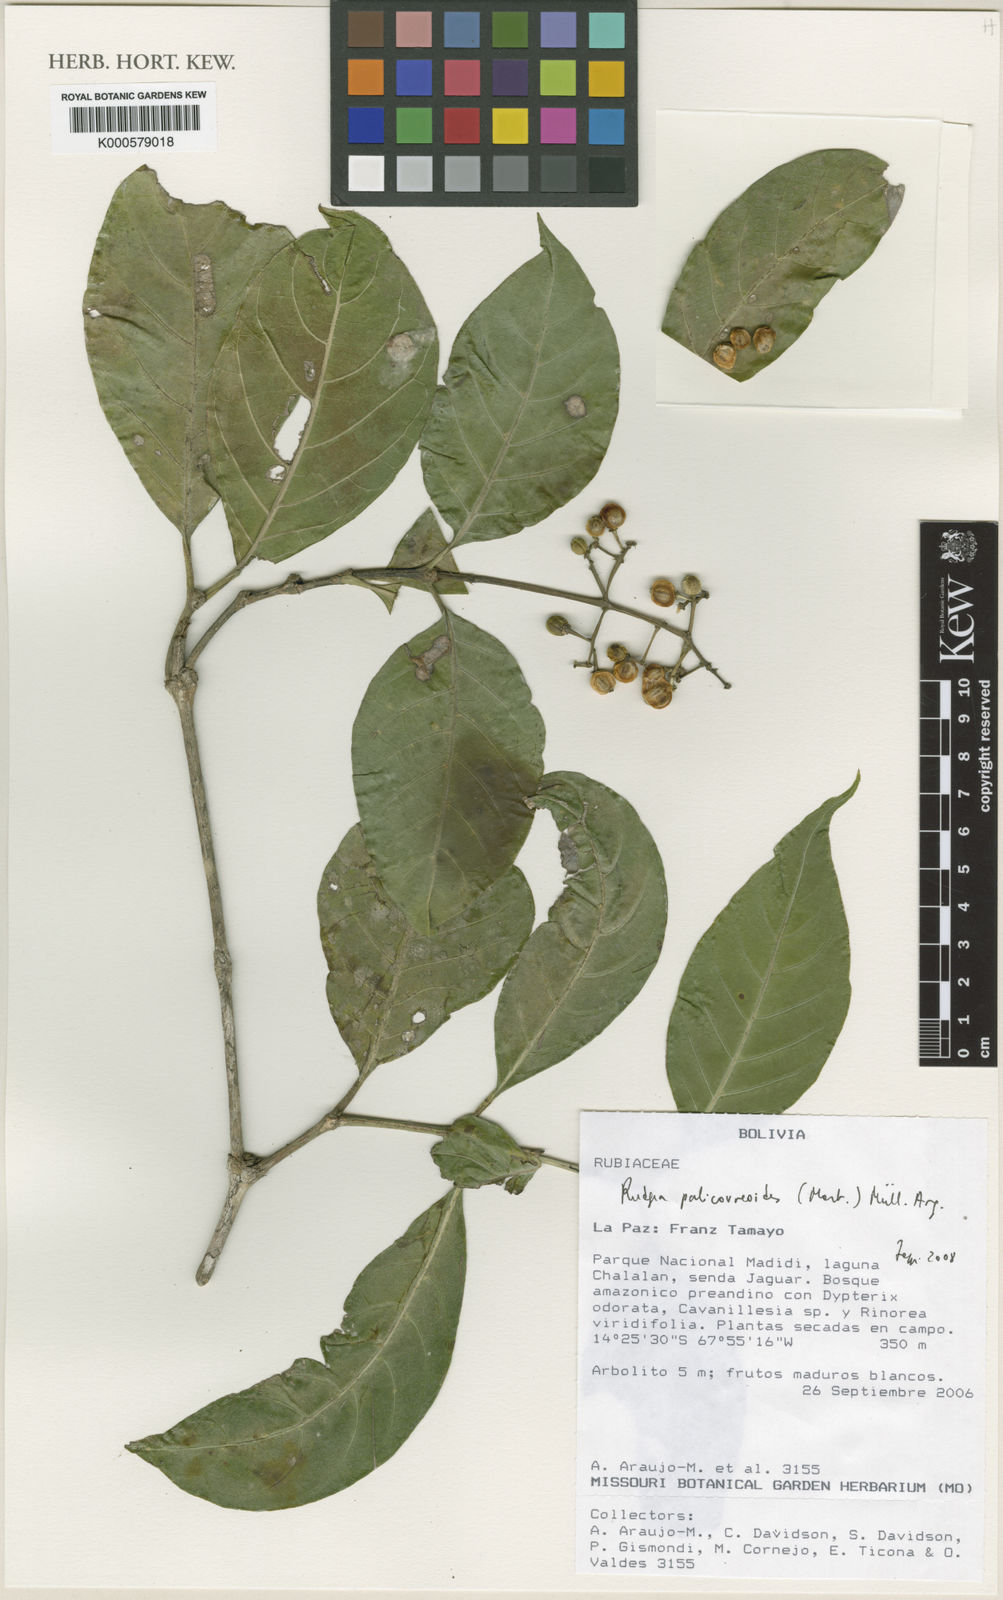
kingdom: Plantae
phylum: Tracheophyta
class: Magnoliopsida
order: Gentianales
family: Rubiaceae
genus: Rudgea
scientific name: Rudgea
